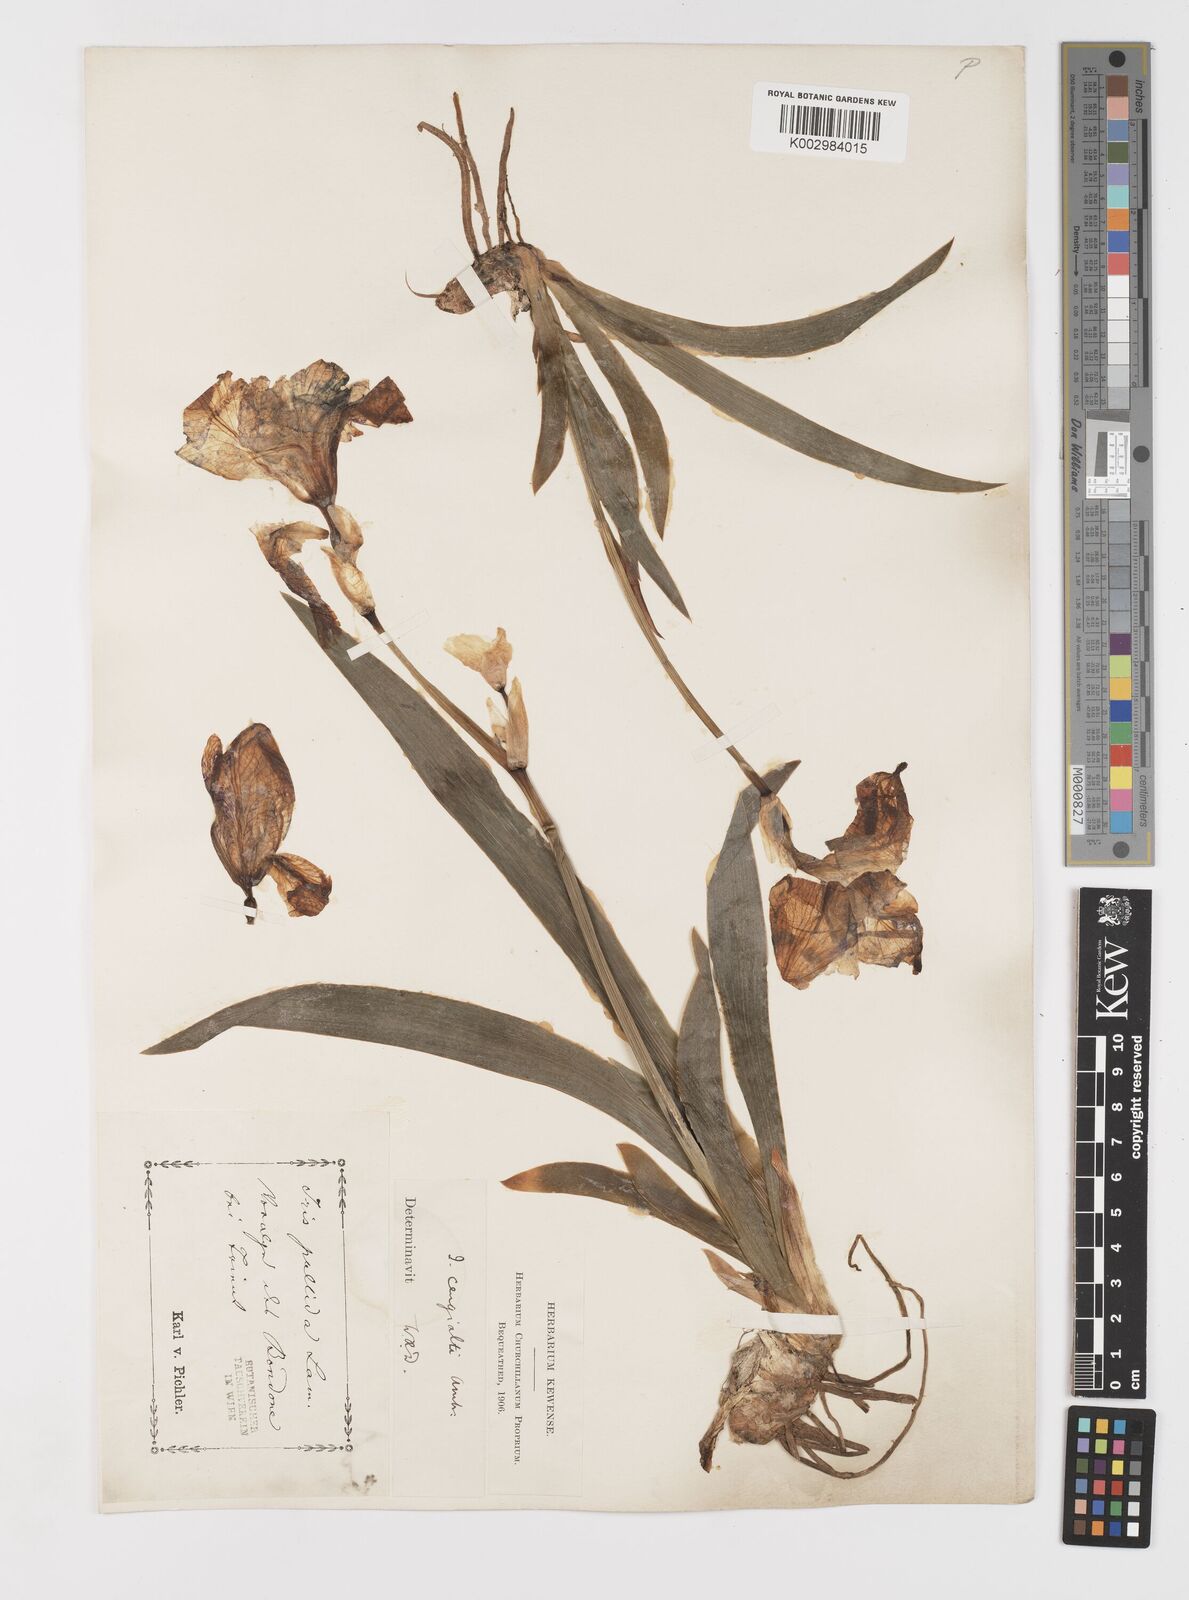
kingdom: Plantae
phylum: Tracheophyta
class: Liliopsida
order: Asparagales
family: Iridaceae
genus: Iris
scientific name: Iris pallida
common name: Sweet iris
